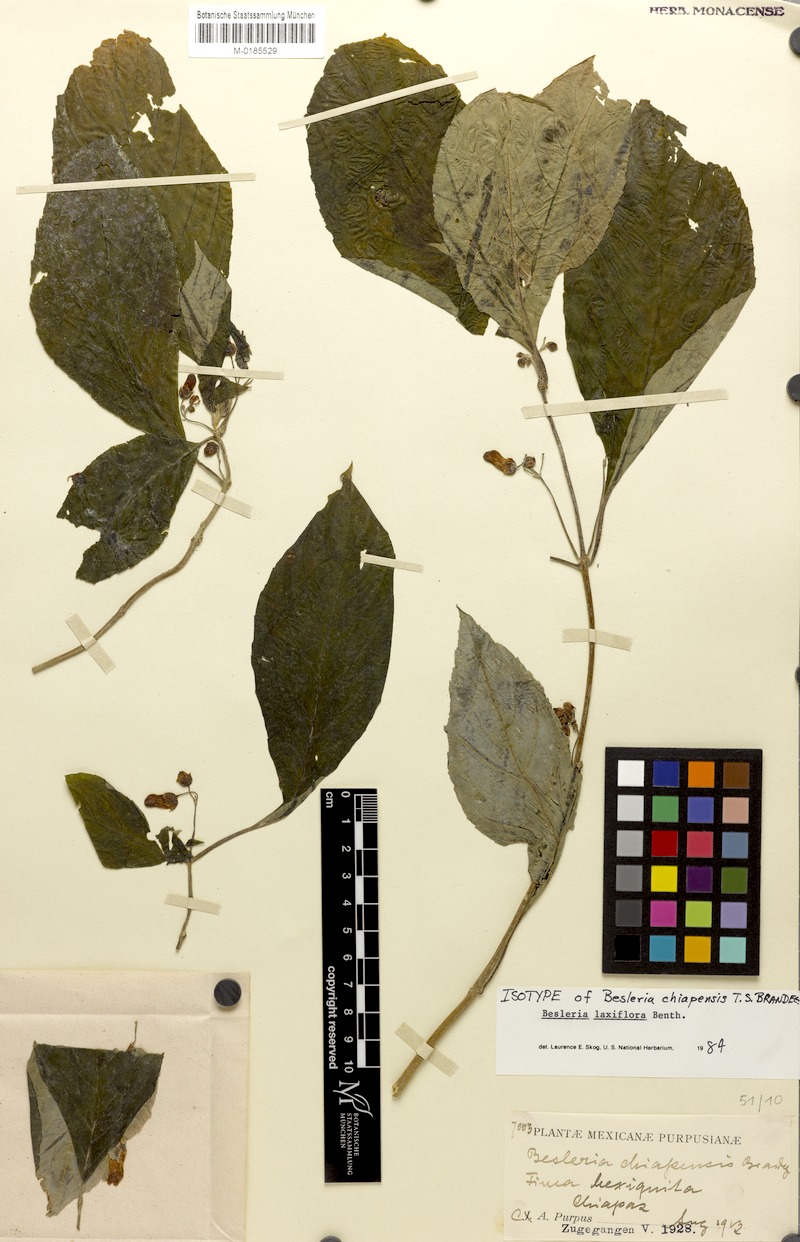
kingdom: Plantae
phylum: Tracheophyta
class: Magnoliopsida
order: Lamiales
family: Gesneriaceae
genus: Besleria
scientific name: Besleria laxiflora
